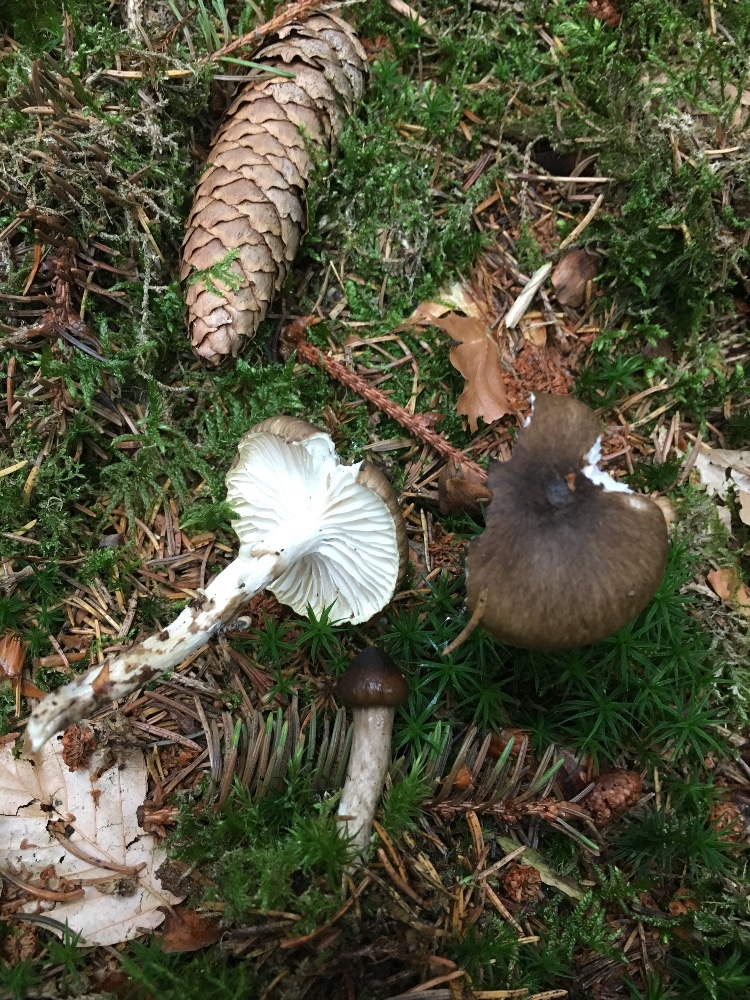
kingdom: Fungi
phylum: Basidiomycota
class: Agaricomycetes
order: Agaricales
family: Hygrophoraceae
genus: Hygrophorus
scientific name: Hygrophorus olivaceoalbus
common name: hvidbrun sneglehat
